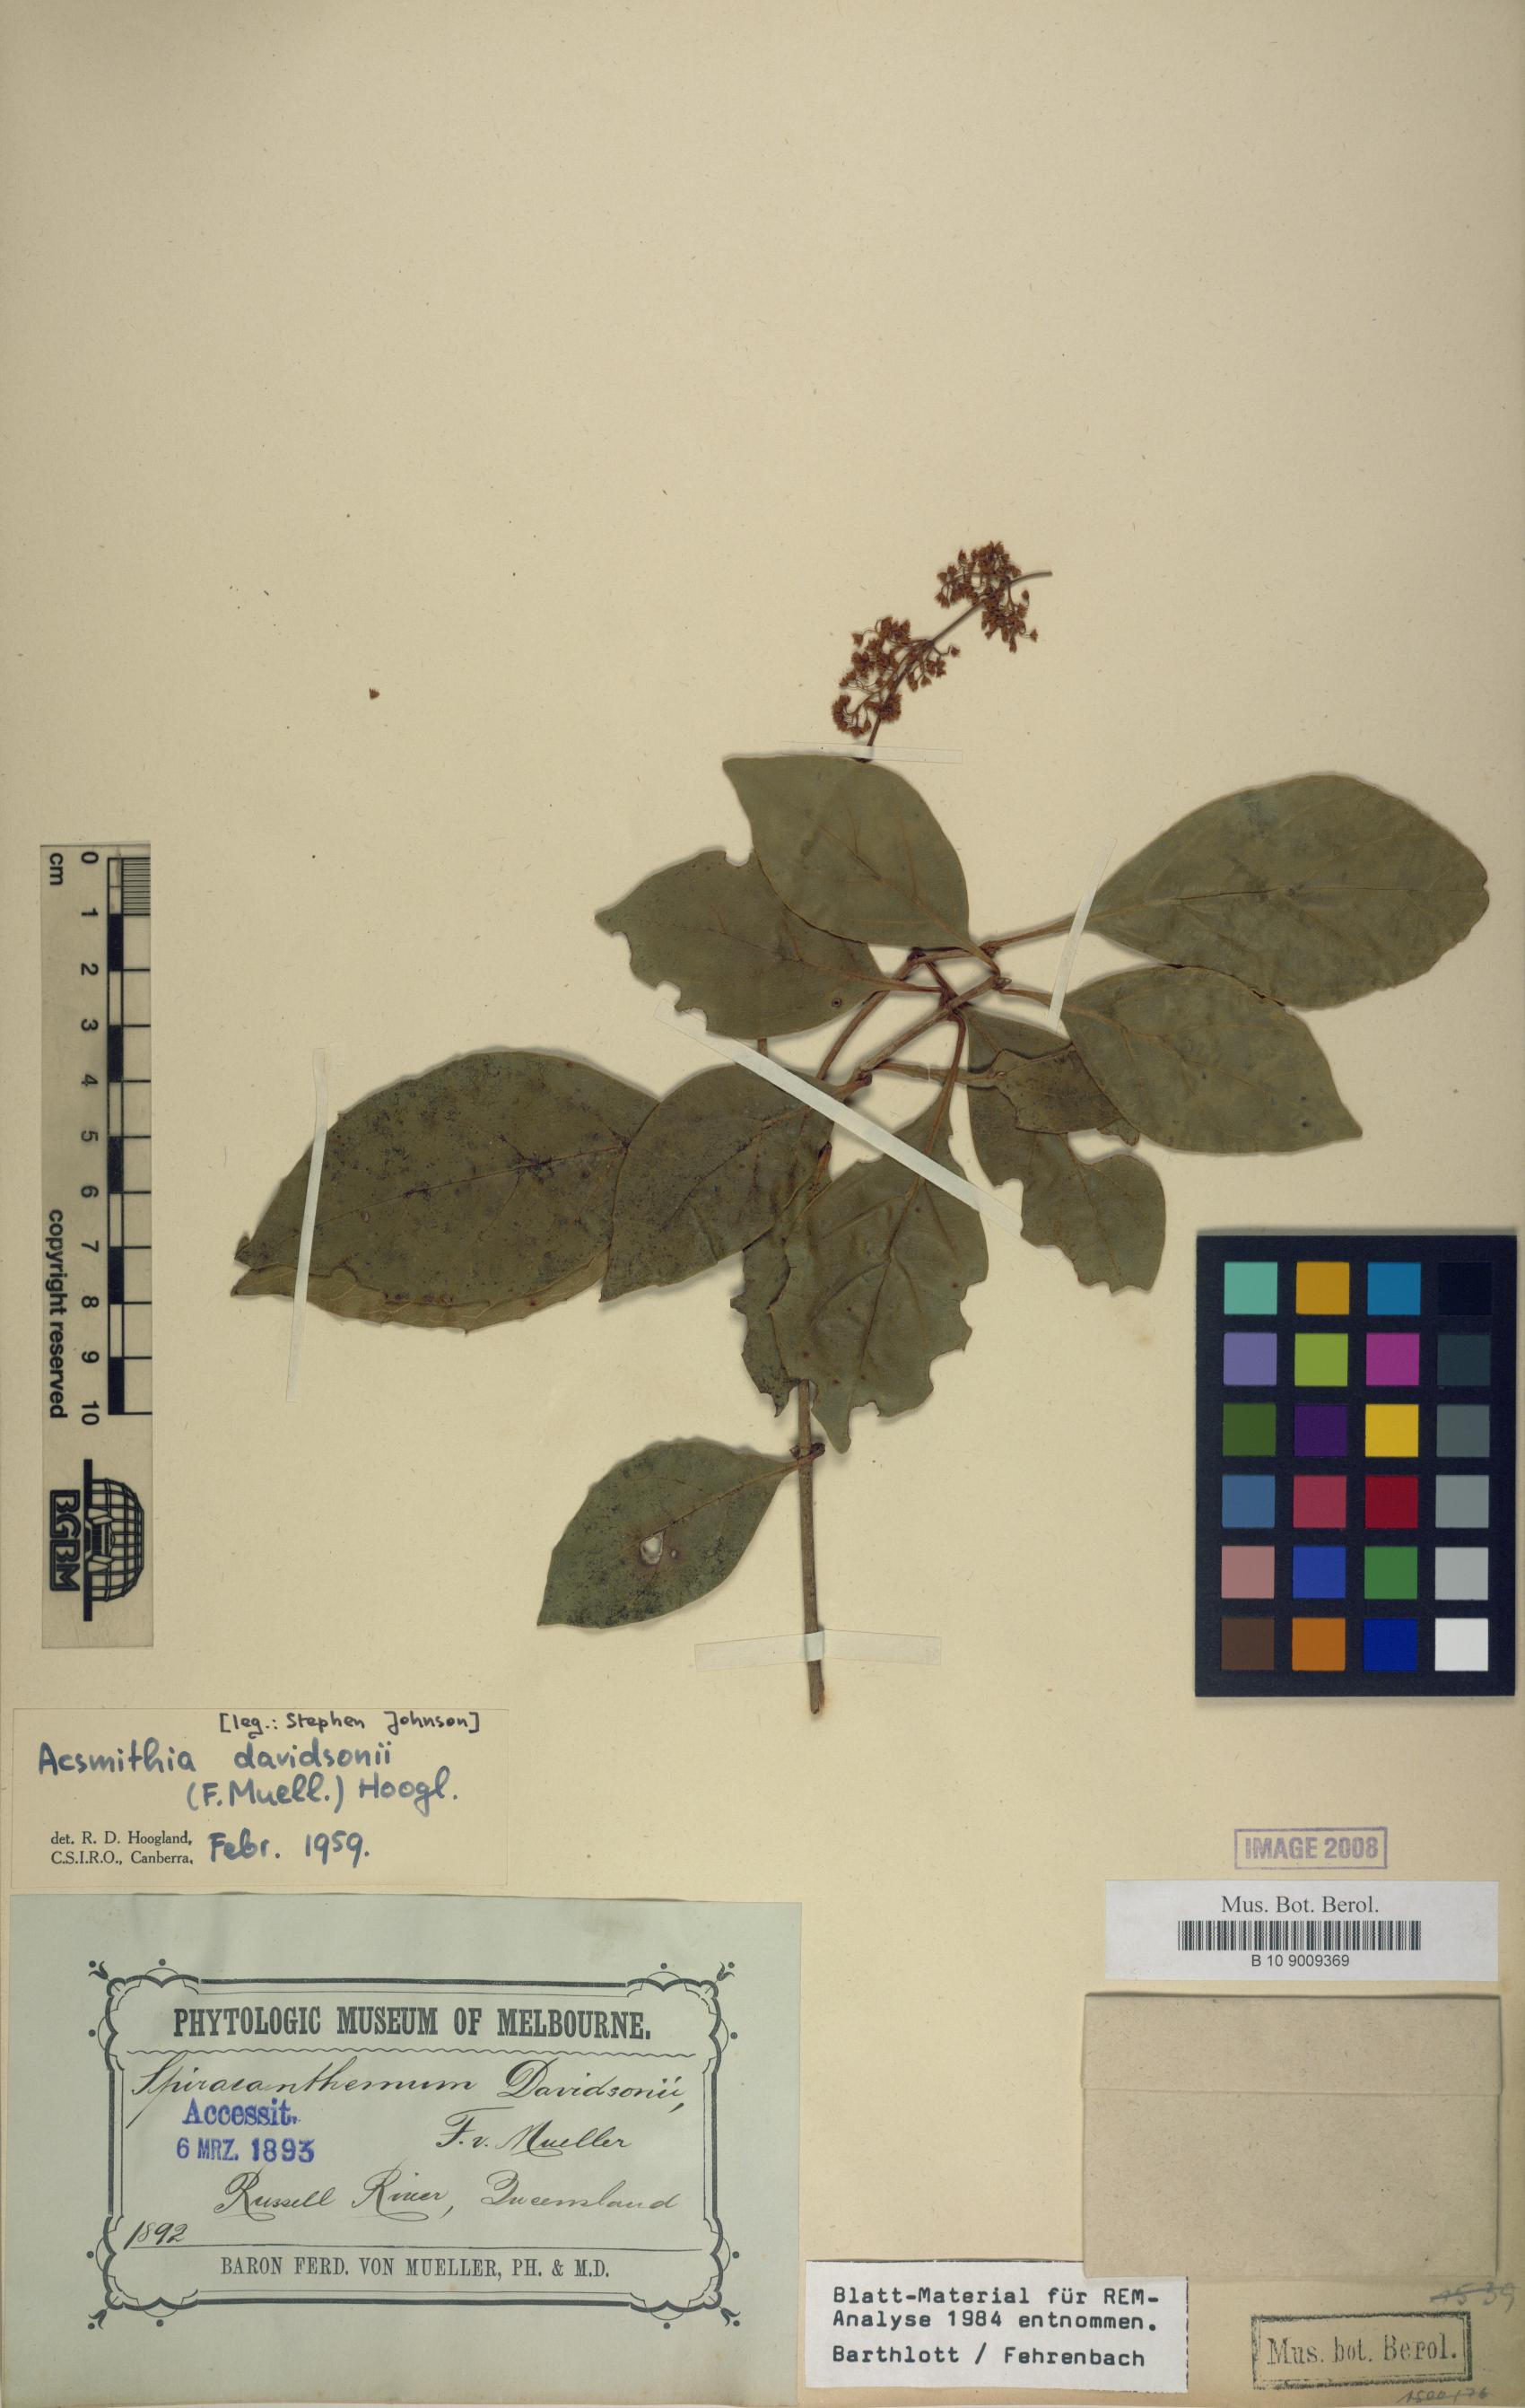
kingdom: Plantae
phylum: Tracheophyta
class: Magnoliopsida
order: Oxalidales
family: Cunoniaceae
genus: Spiraeanthemum
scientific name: Spiraeanthemum davidsonii
